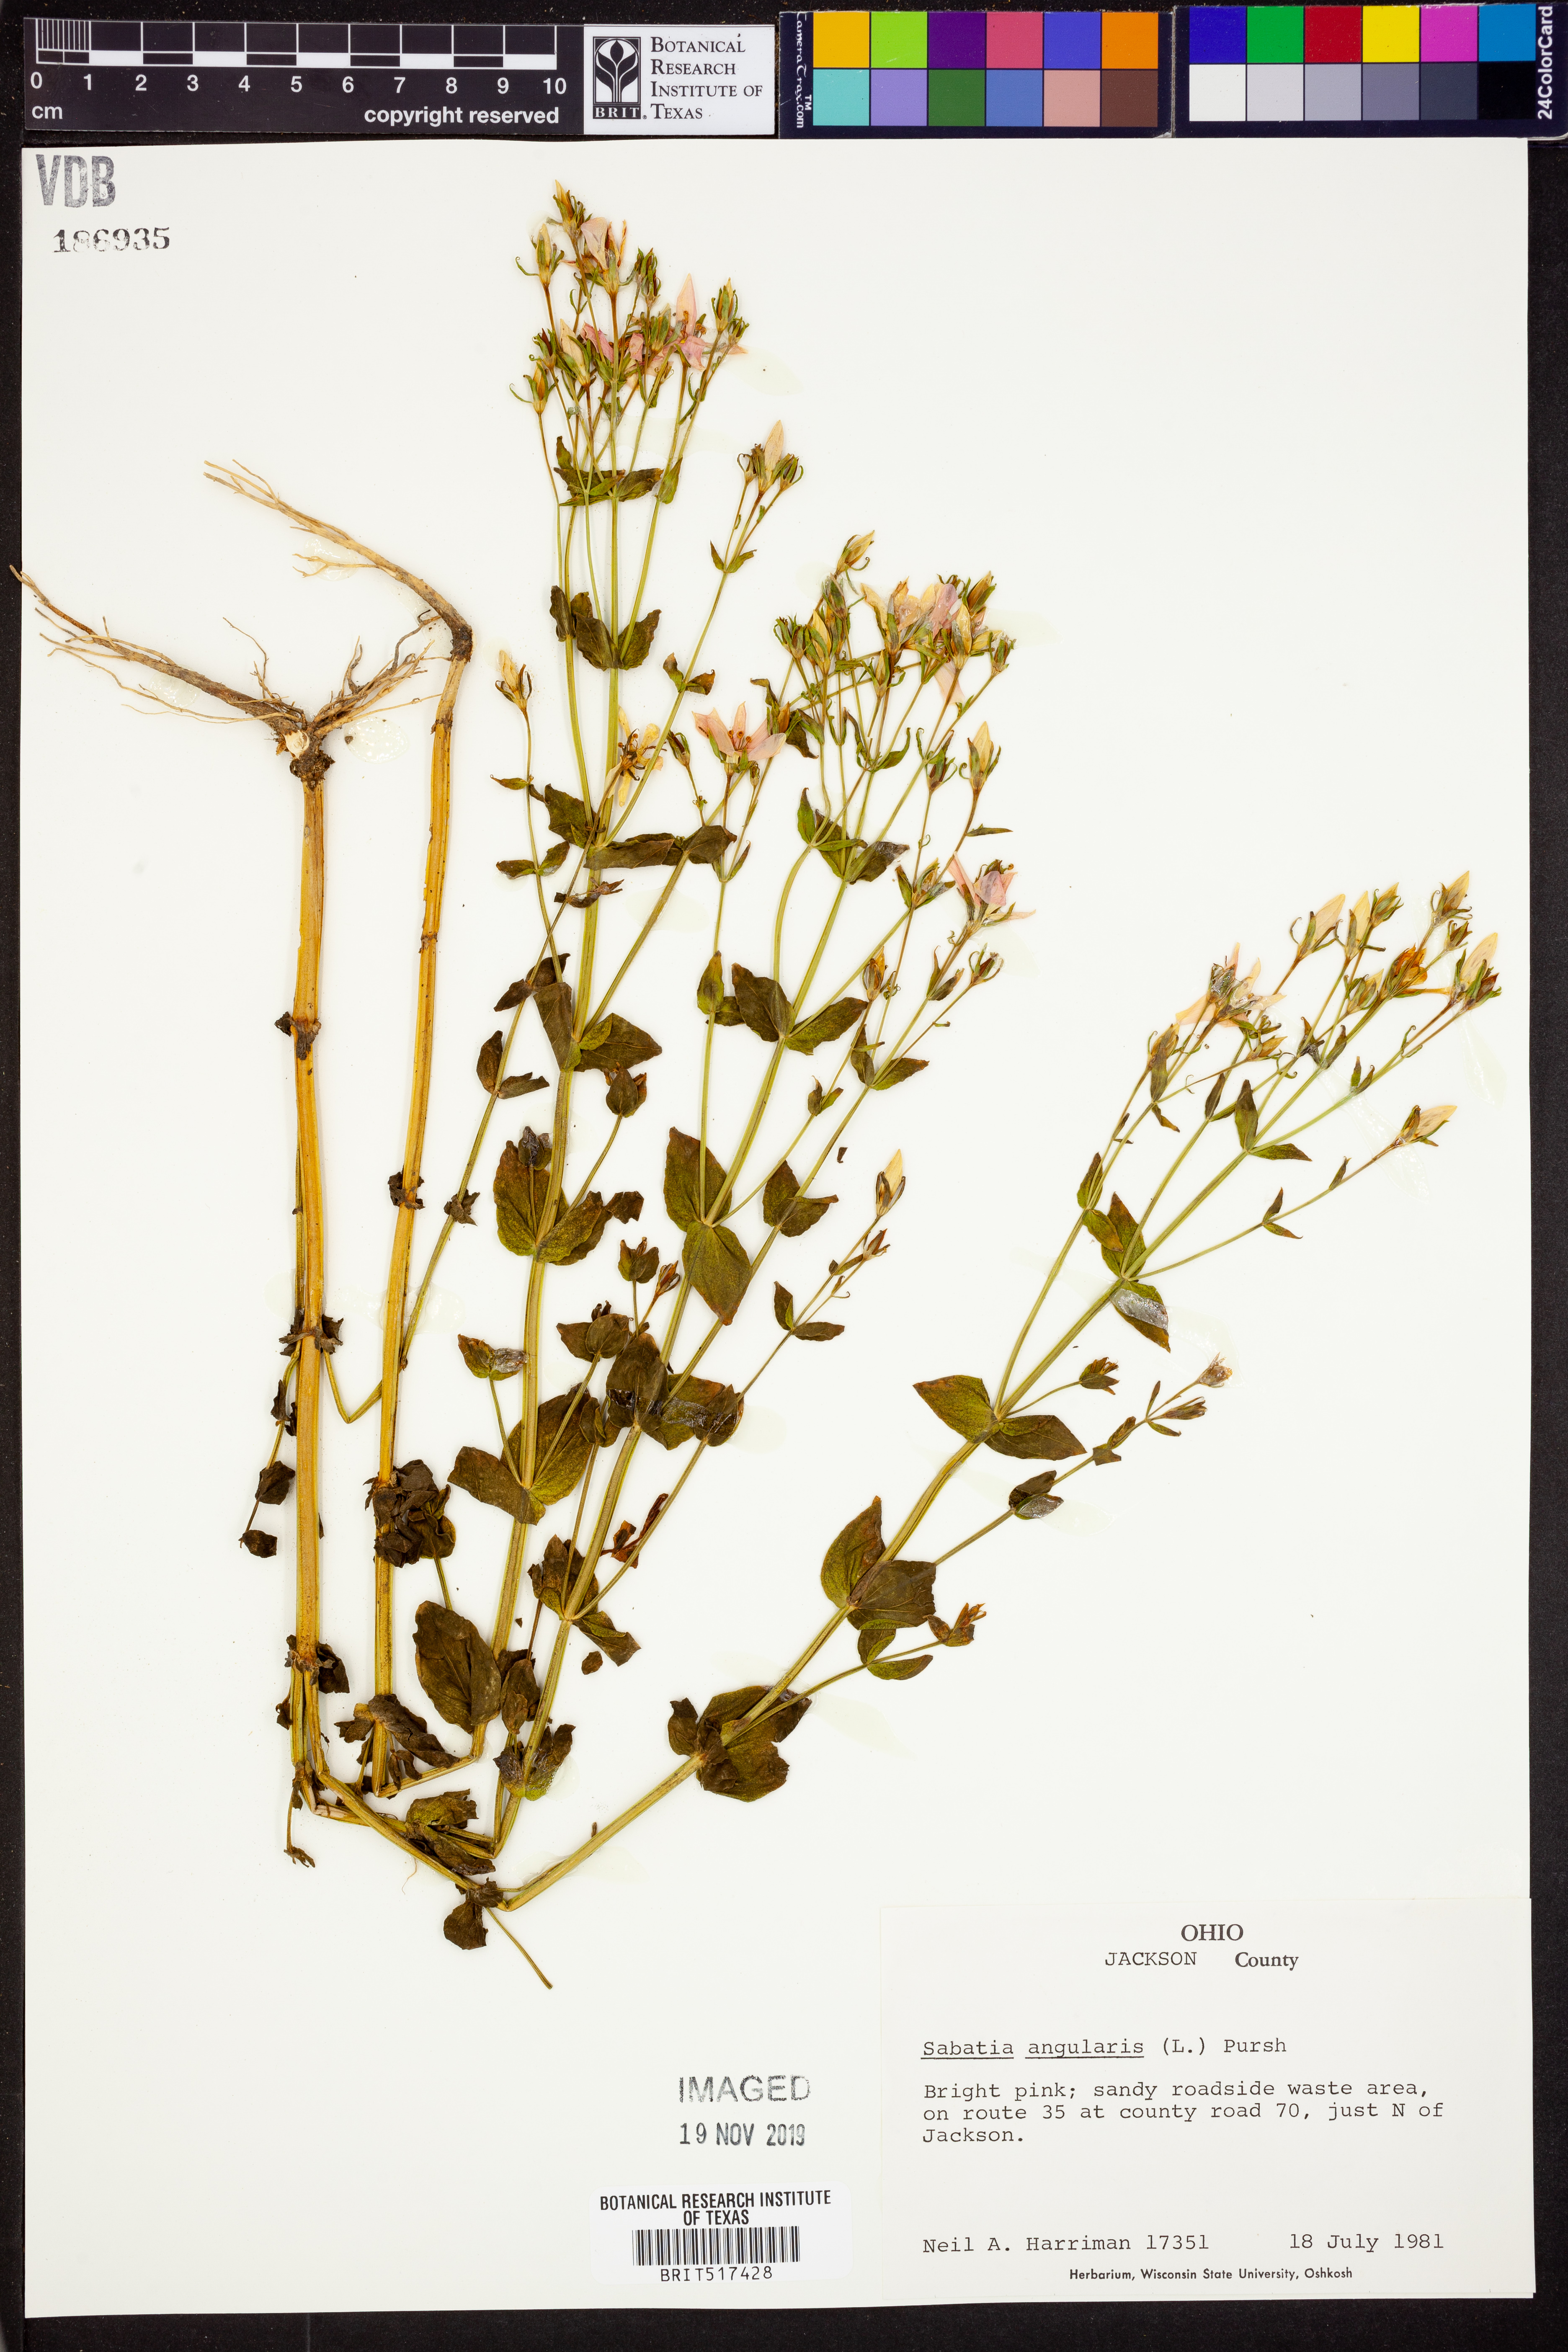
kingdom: Plantae
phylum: Tracheophyta
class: Magnoliopsida
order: Gentianales
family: Gentianaceae
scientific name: Gentianaceae
